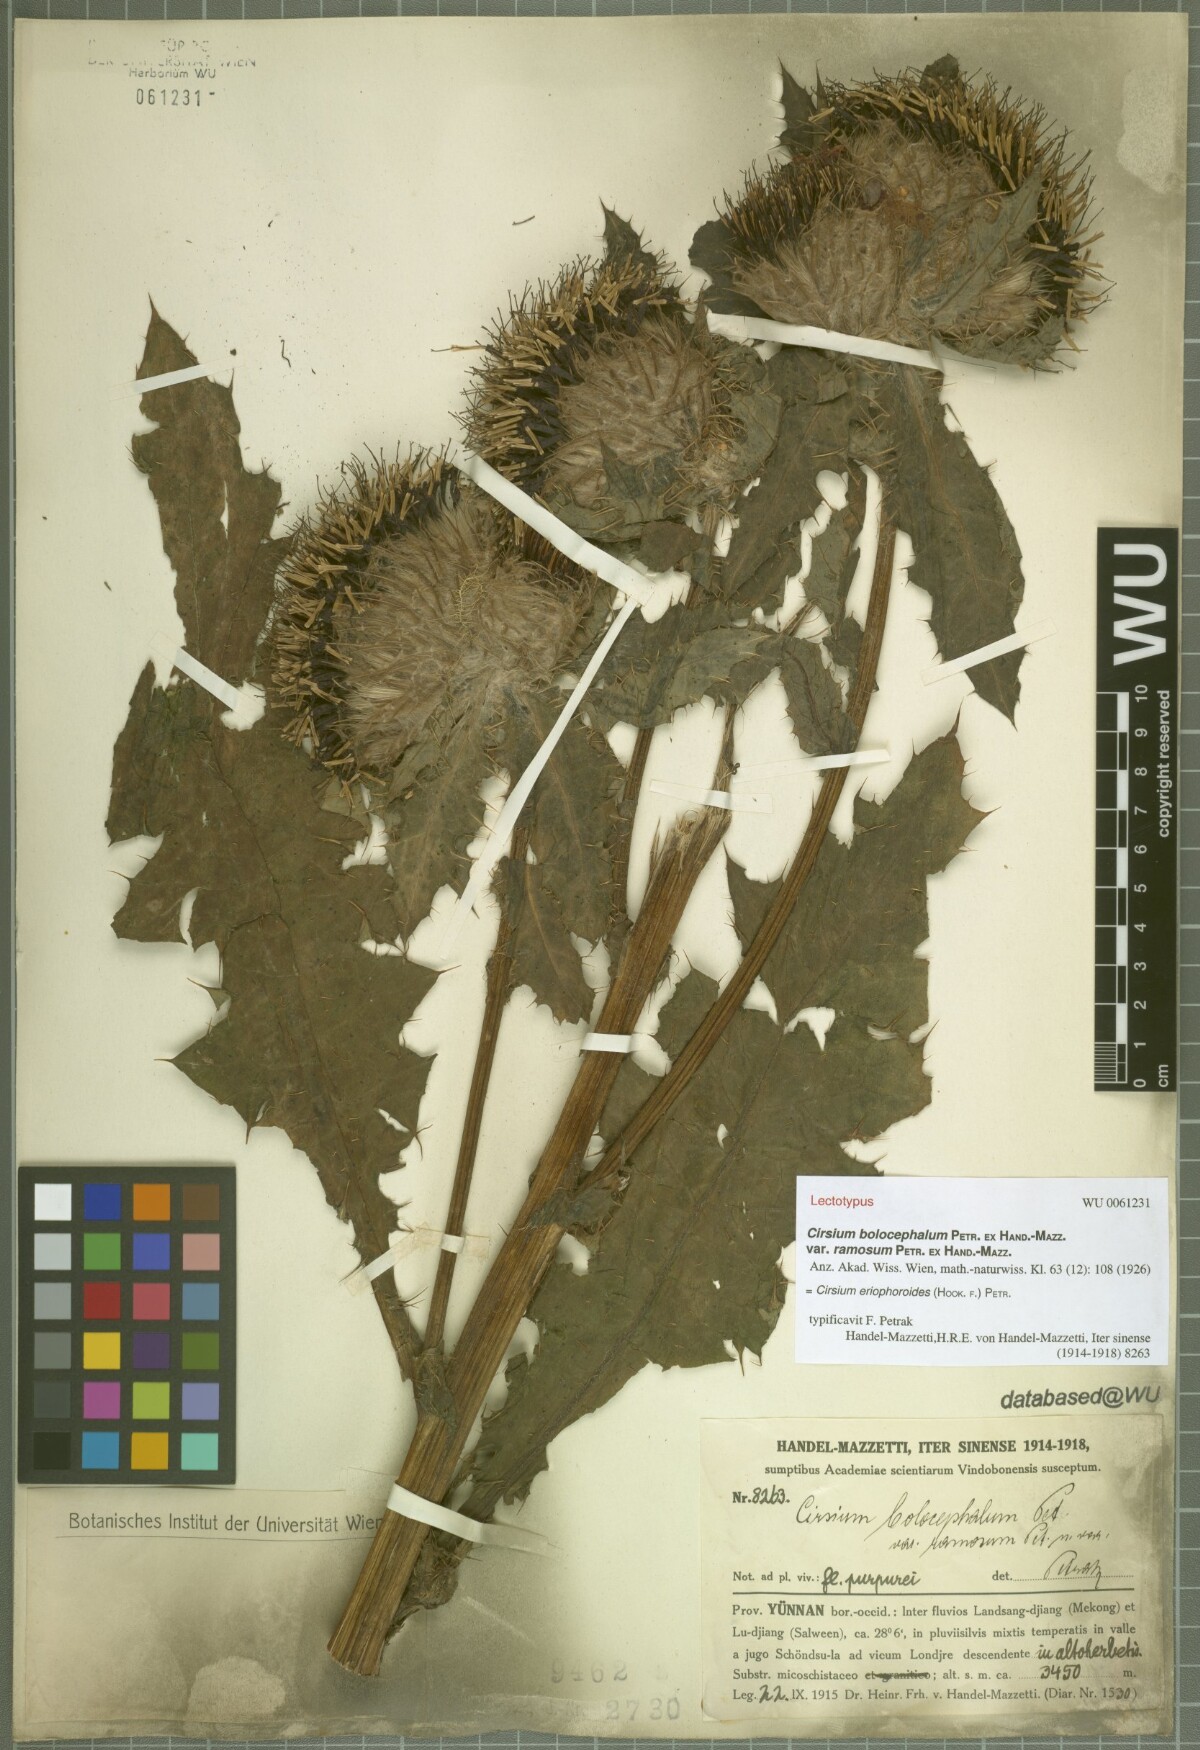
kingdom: Plantae
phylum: Tracheophyta
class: Magnoliopsida
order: Asterales
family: Asteraceae
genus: Cirsium
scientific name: Cirsium eriophoroides
